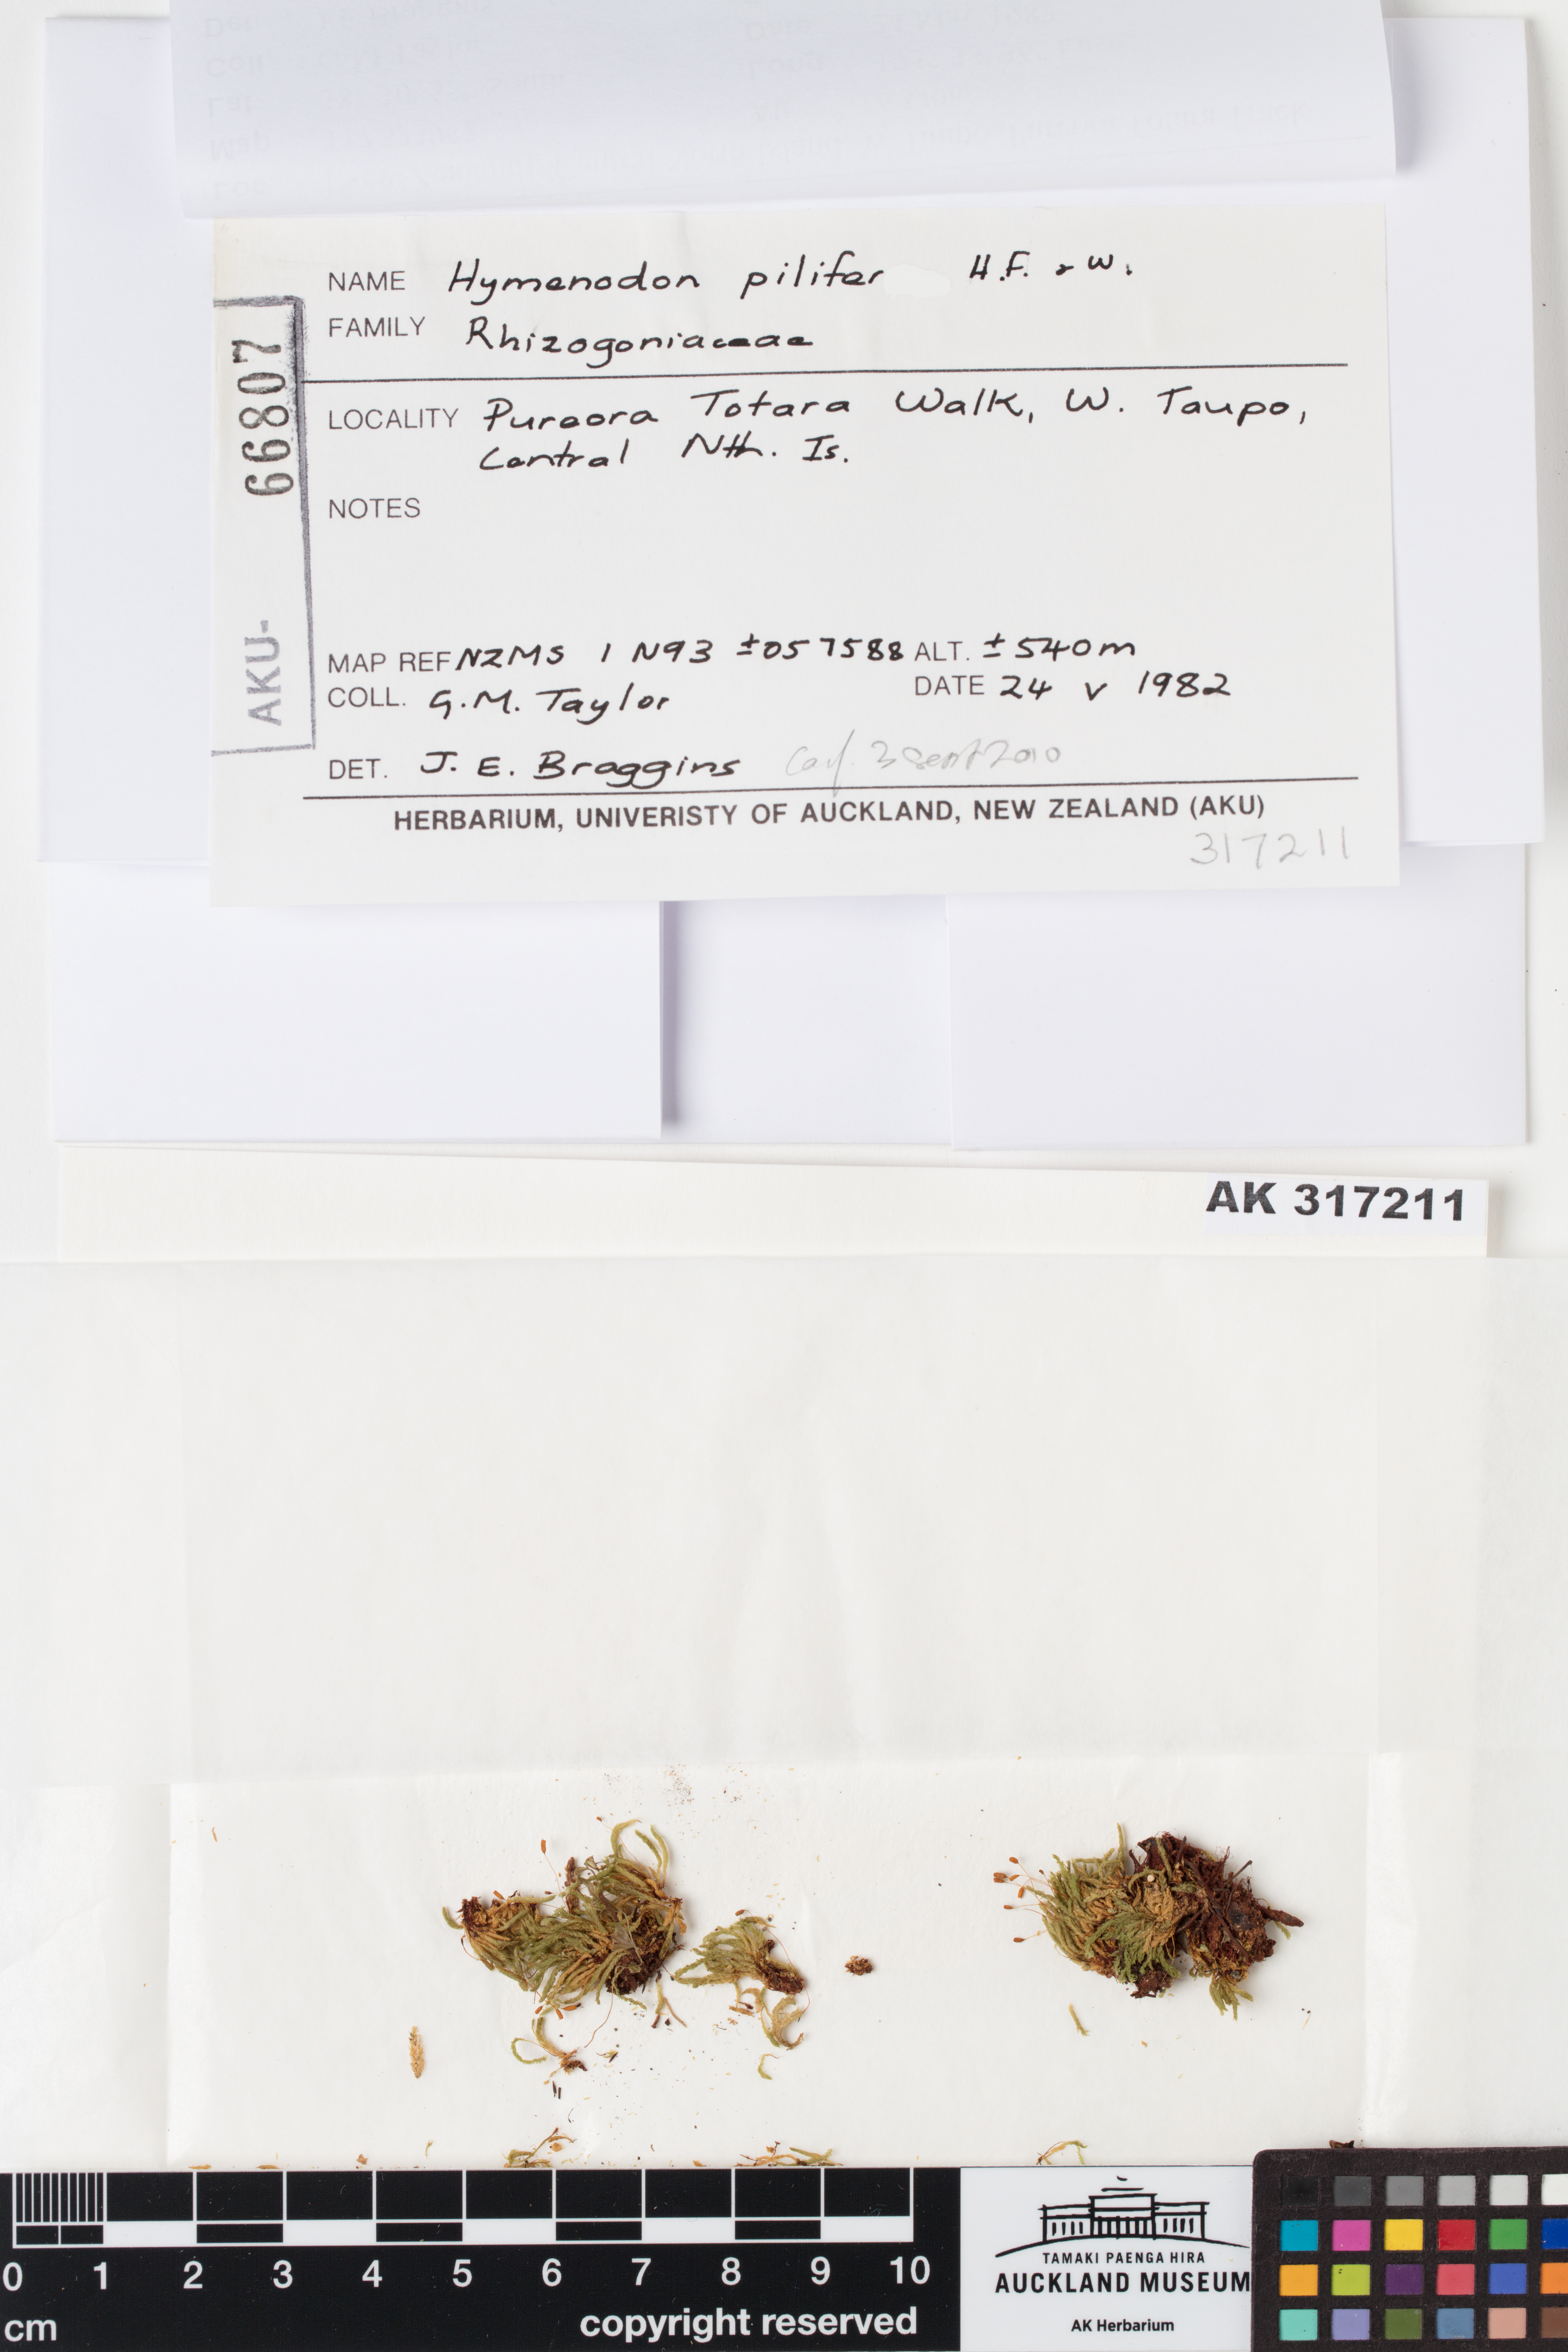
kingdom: Plantae
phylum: Bryophyta
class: Bryopsida
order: Orthodontiales
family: Orthodontiaceae
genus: Hymenodon
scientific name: Hymenodon pilifer
